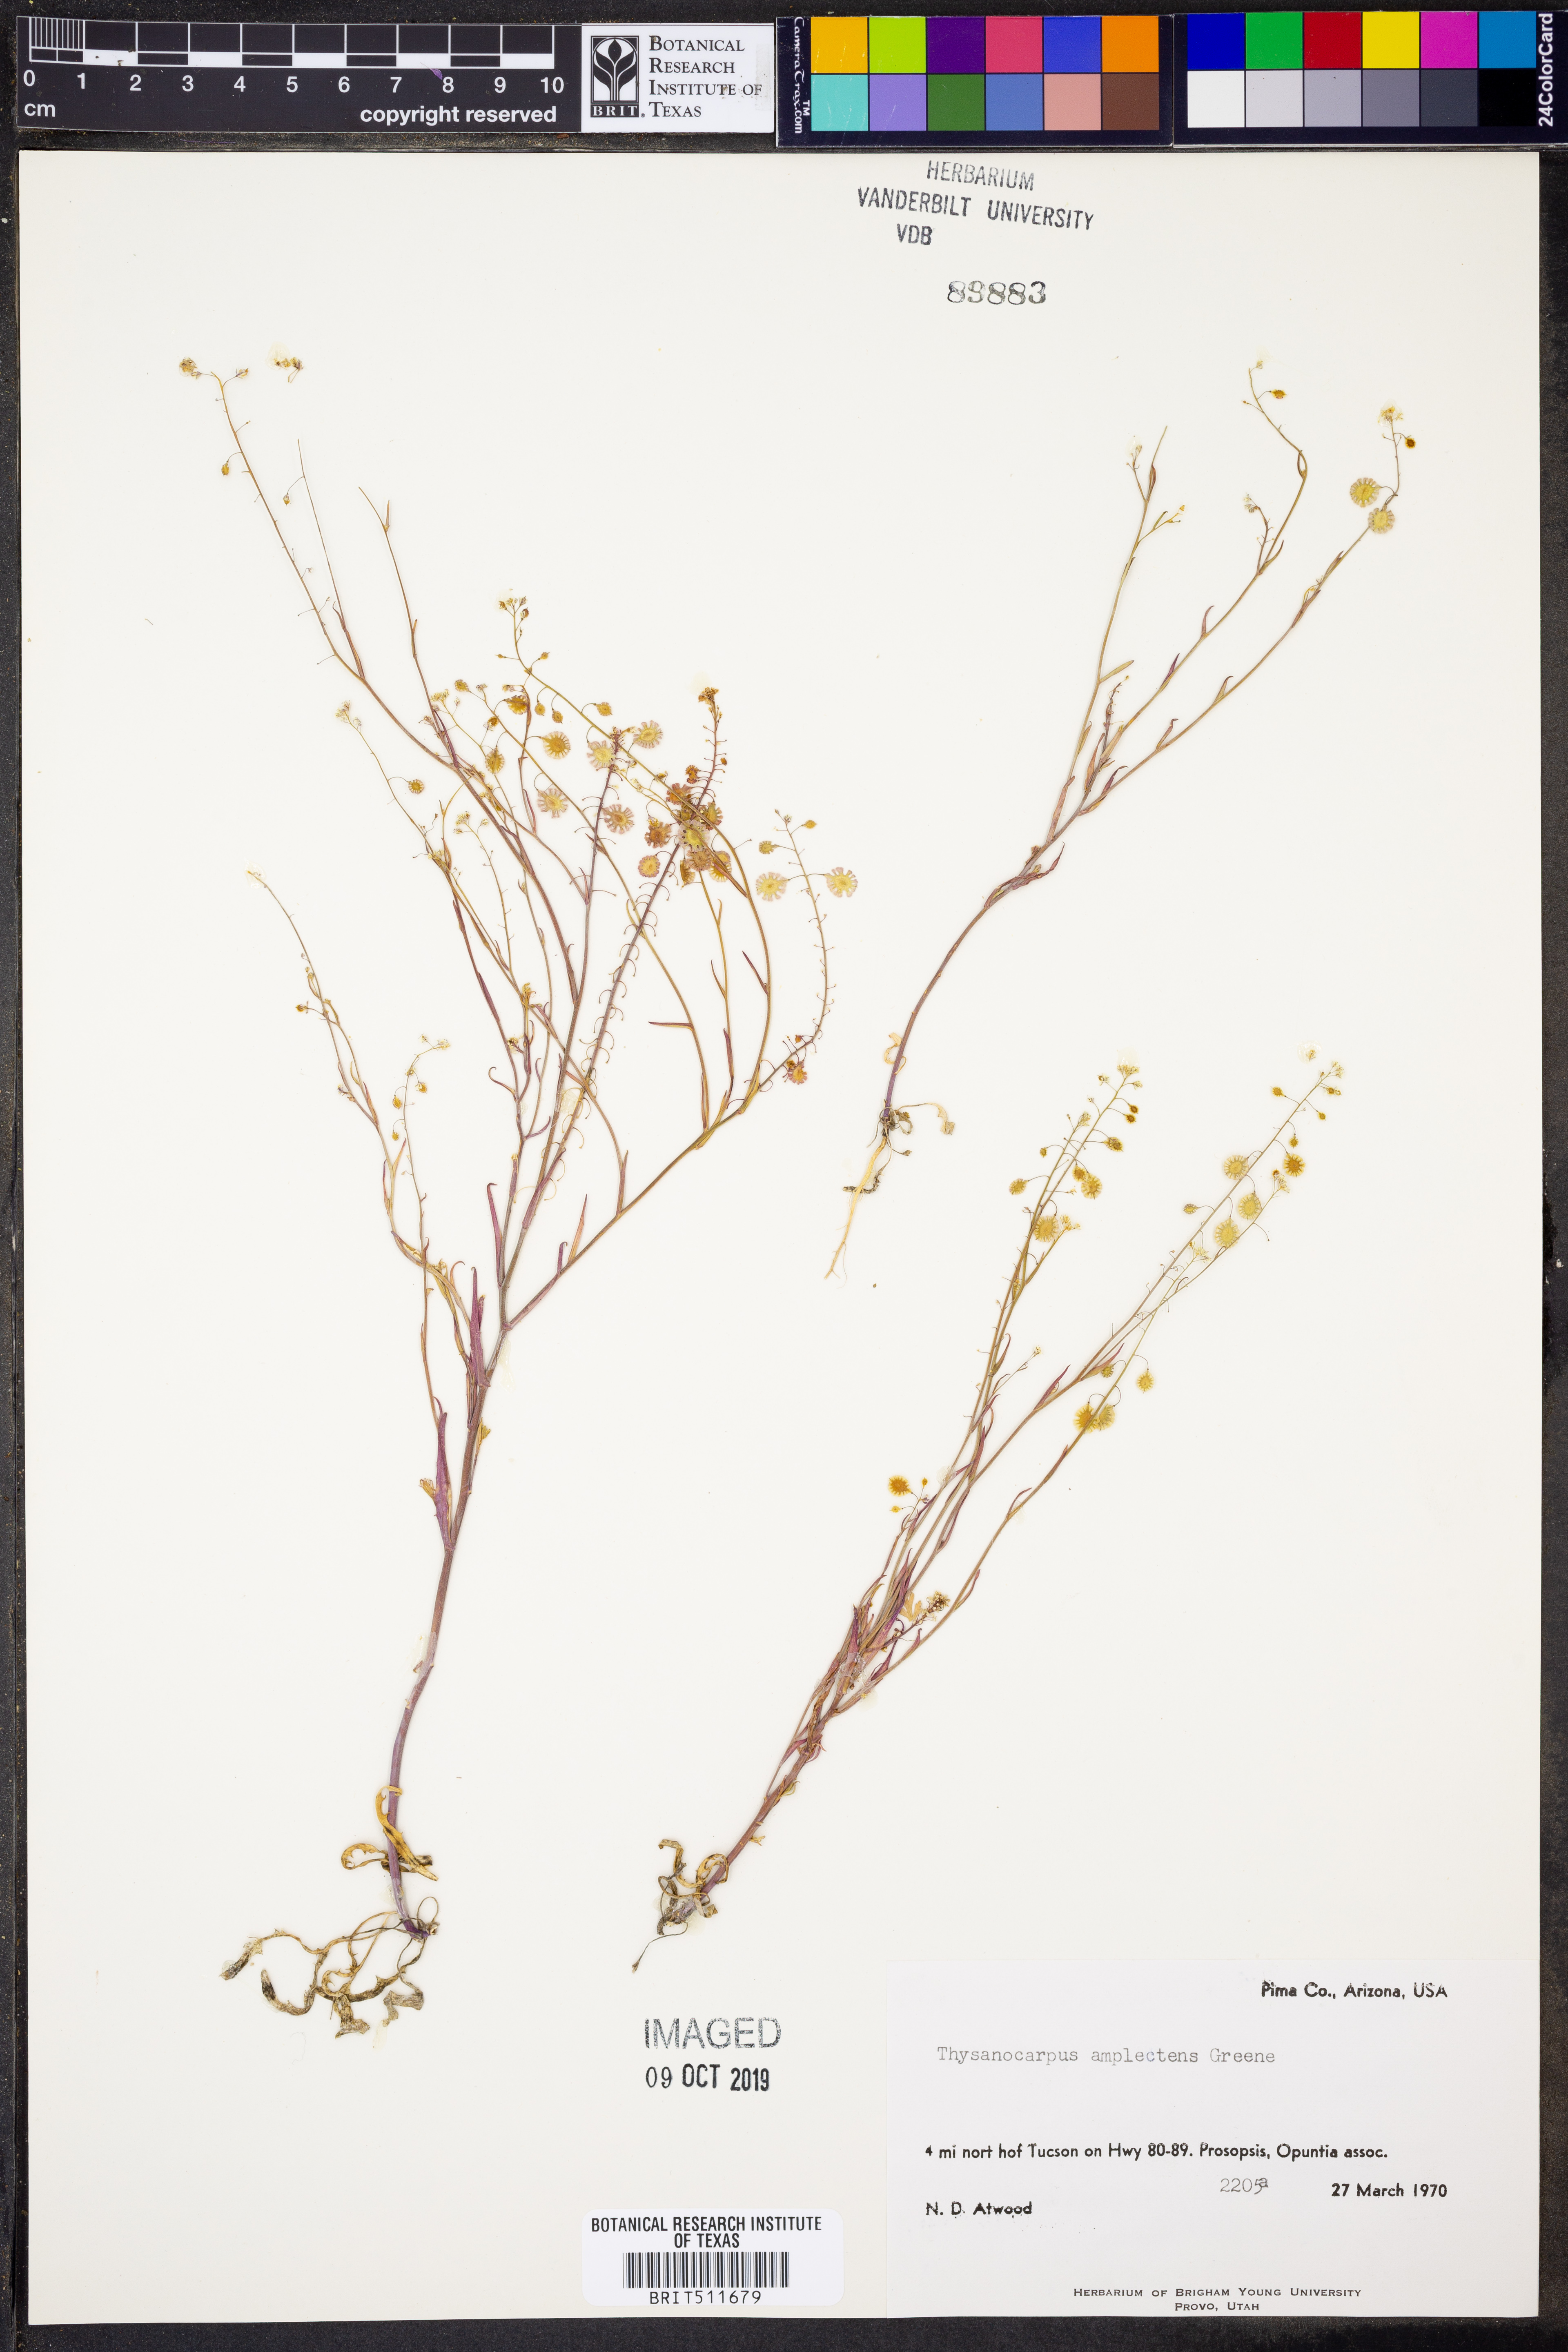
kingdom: Plantae
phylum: Tracheophyta
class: Magnoliopsida
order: Brassicales
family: Brassicaceae
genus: Thysanocarpus
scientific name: Thysanocarpus curvipes
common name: Sand fringepod
